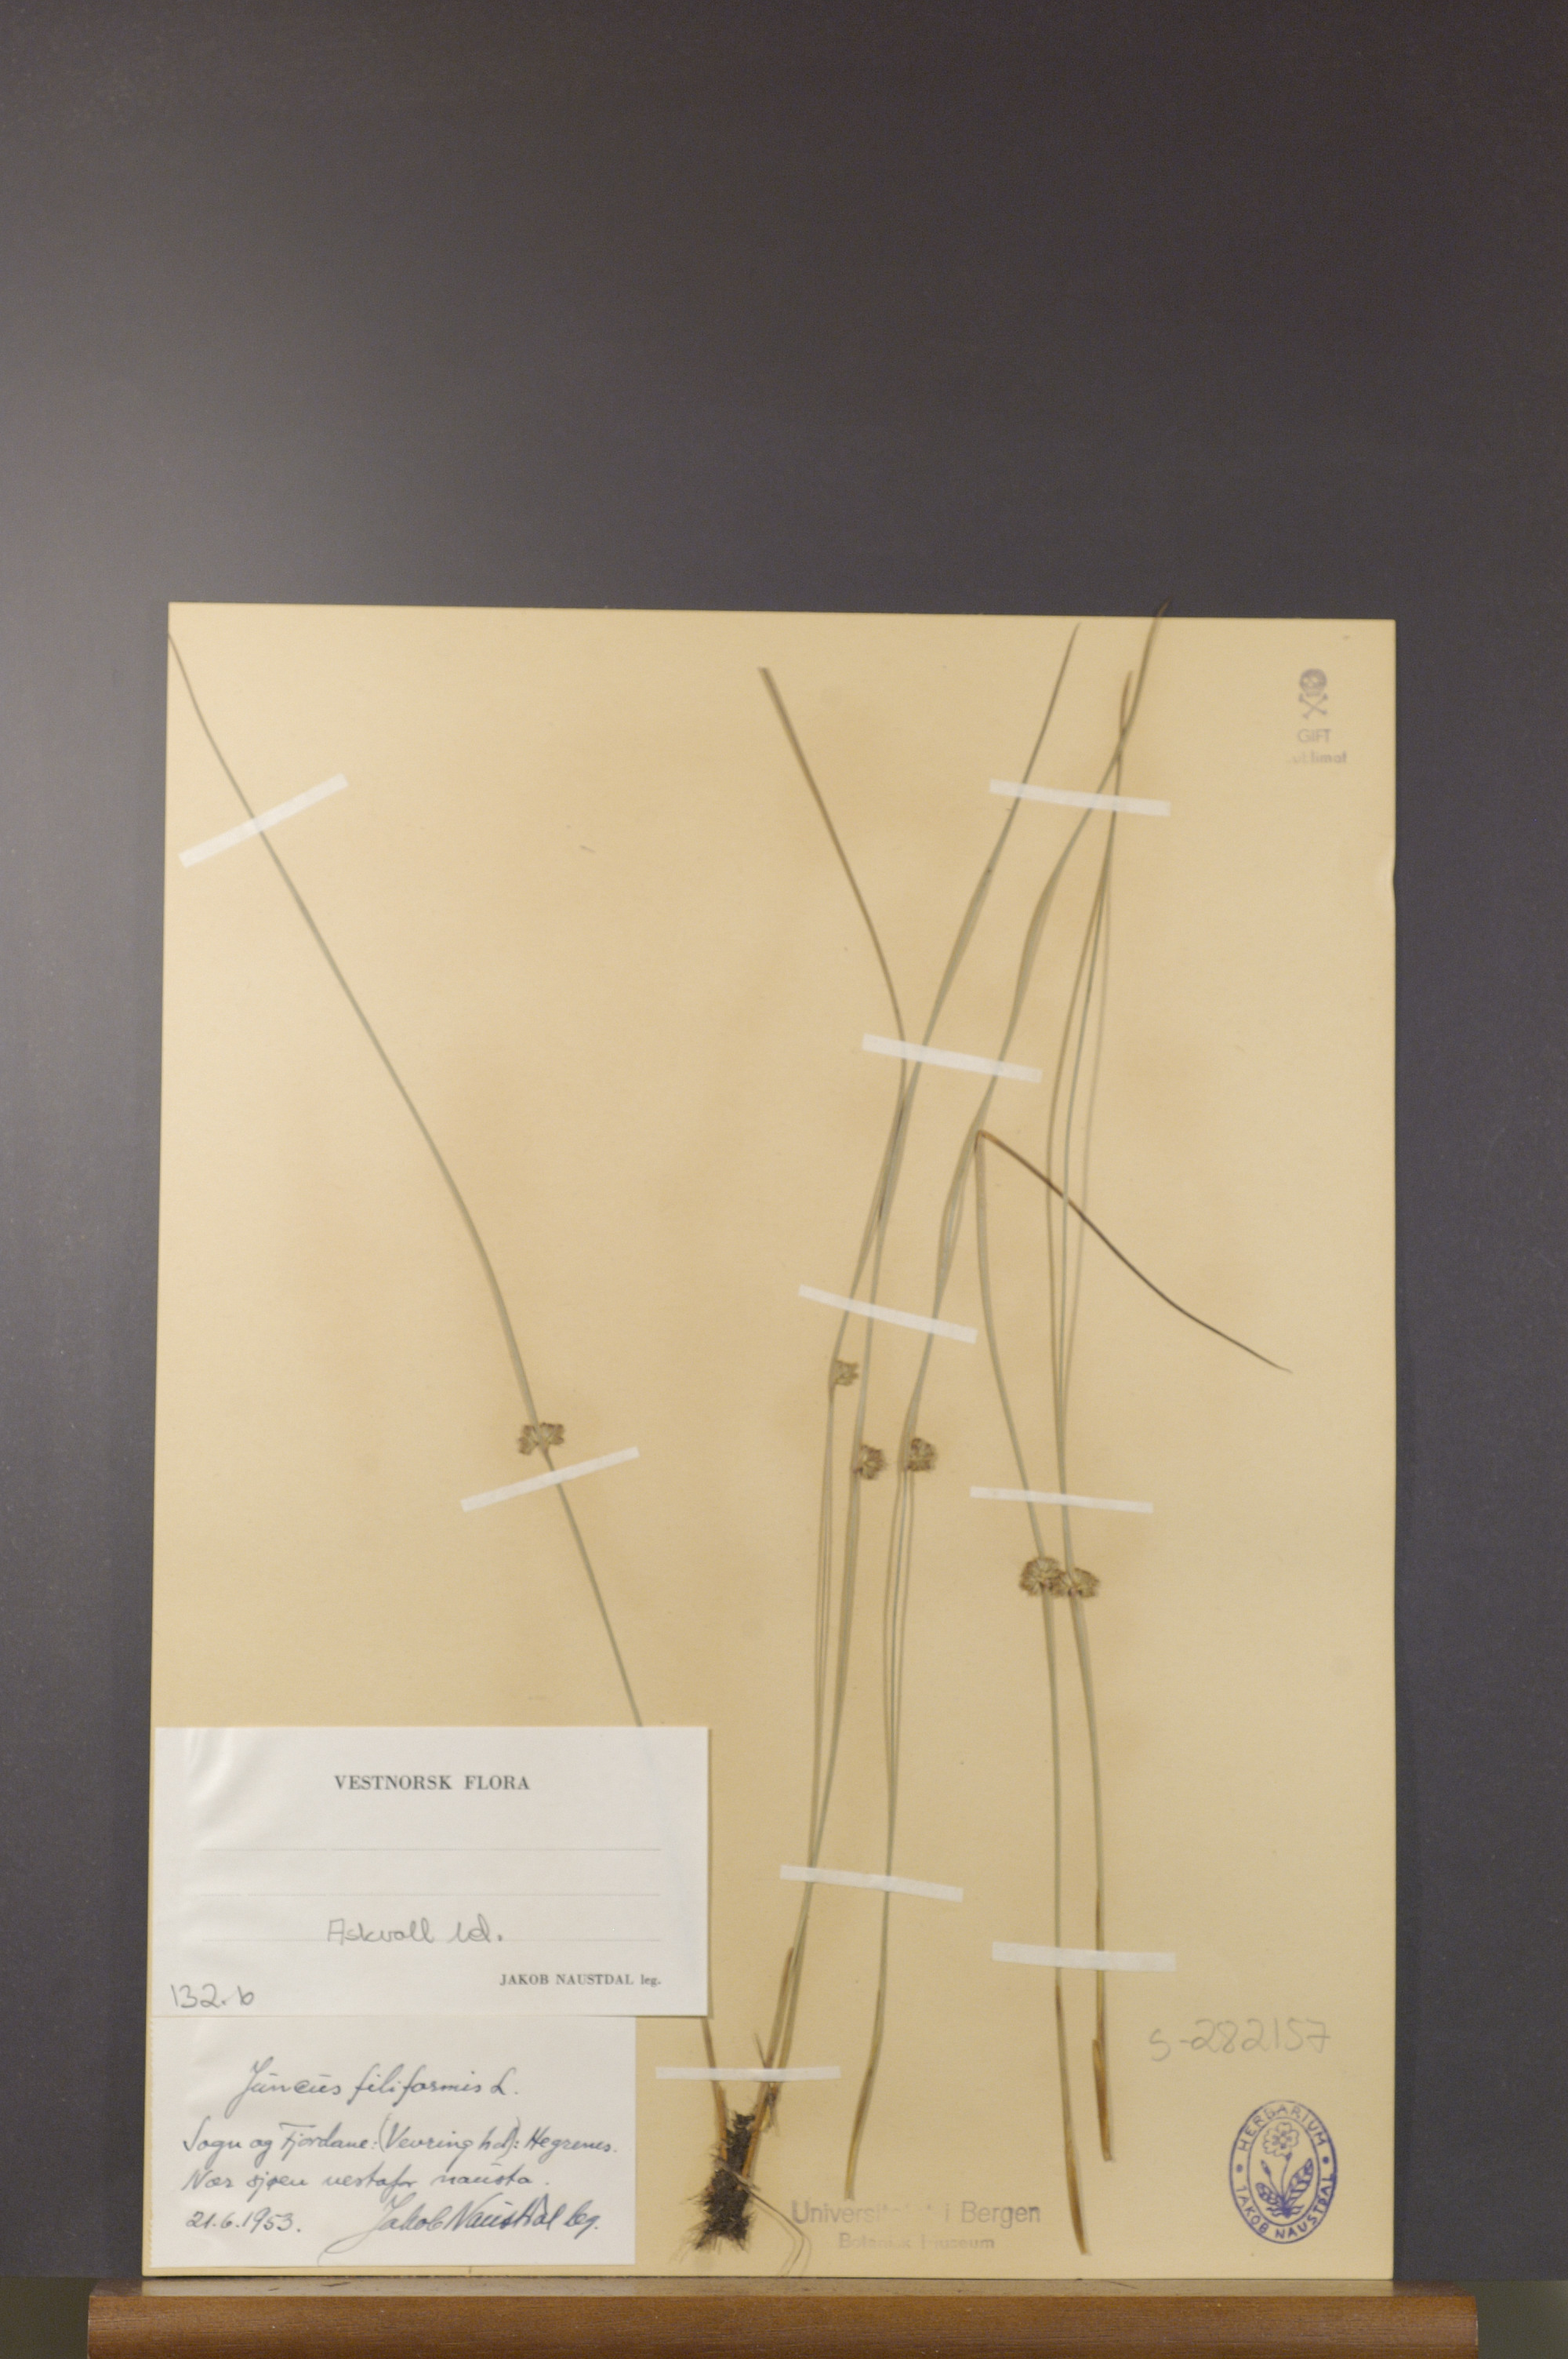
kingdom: Plantae
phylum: Tracheophyta
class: Liliopsida
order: Poales
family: Juncaceae
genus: Juncus
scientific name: Juncus filiformis
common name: Thread rush
